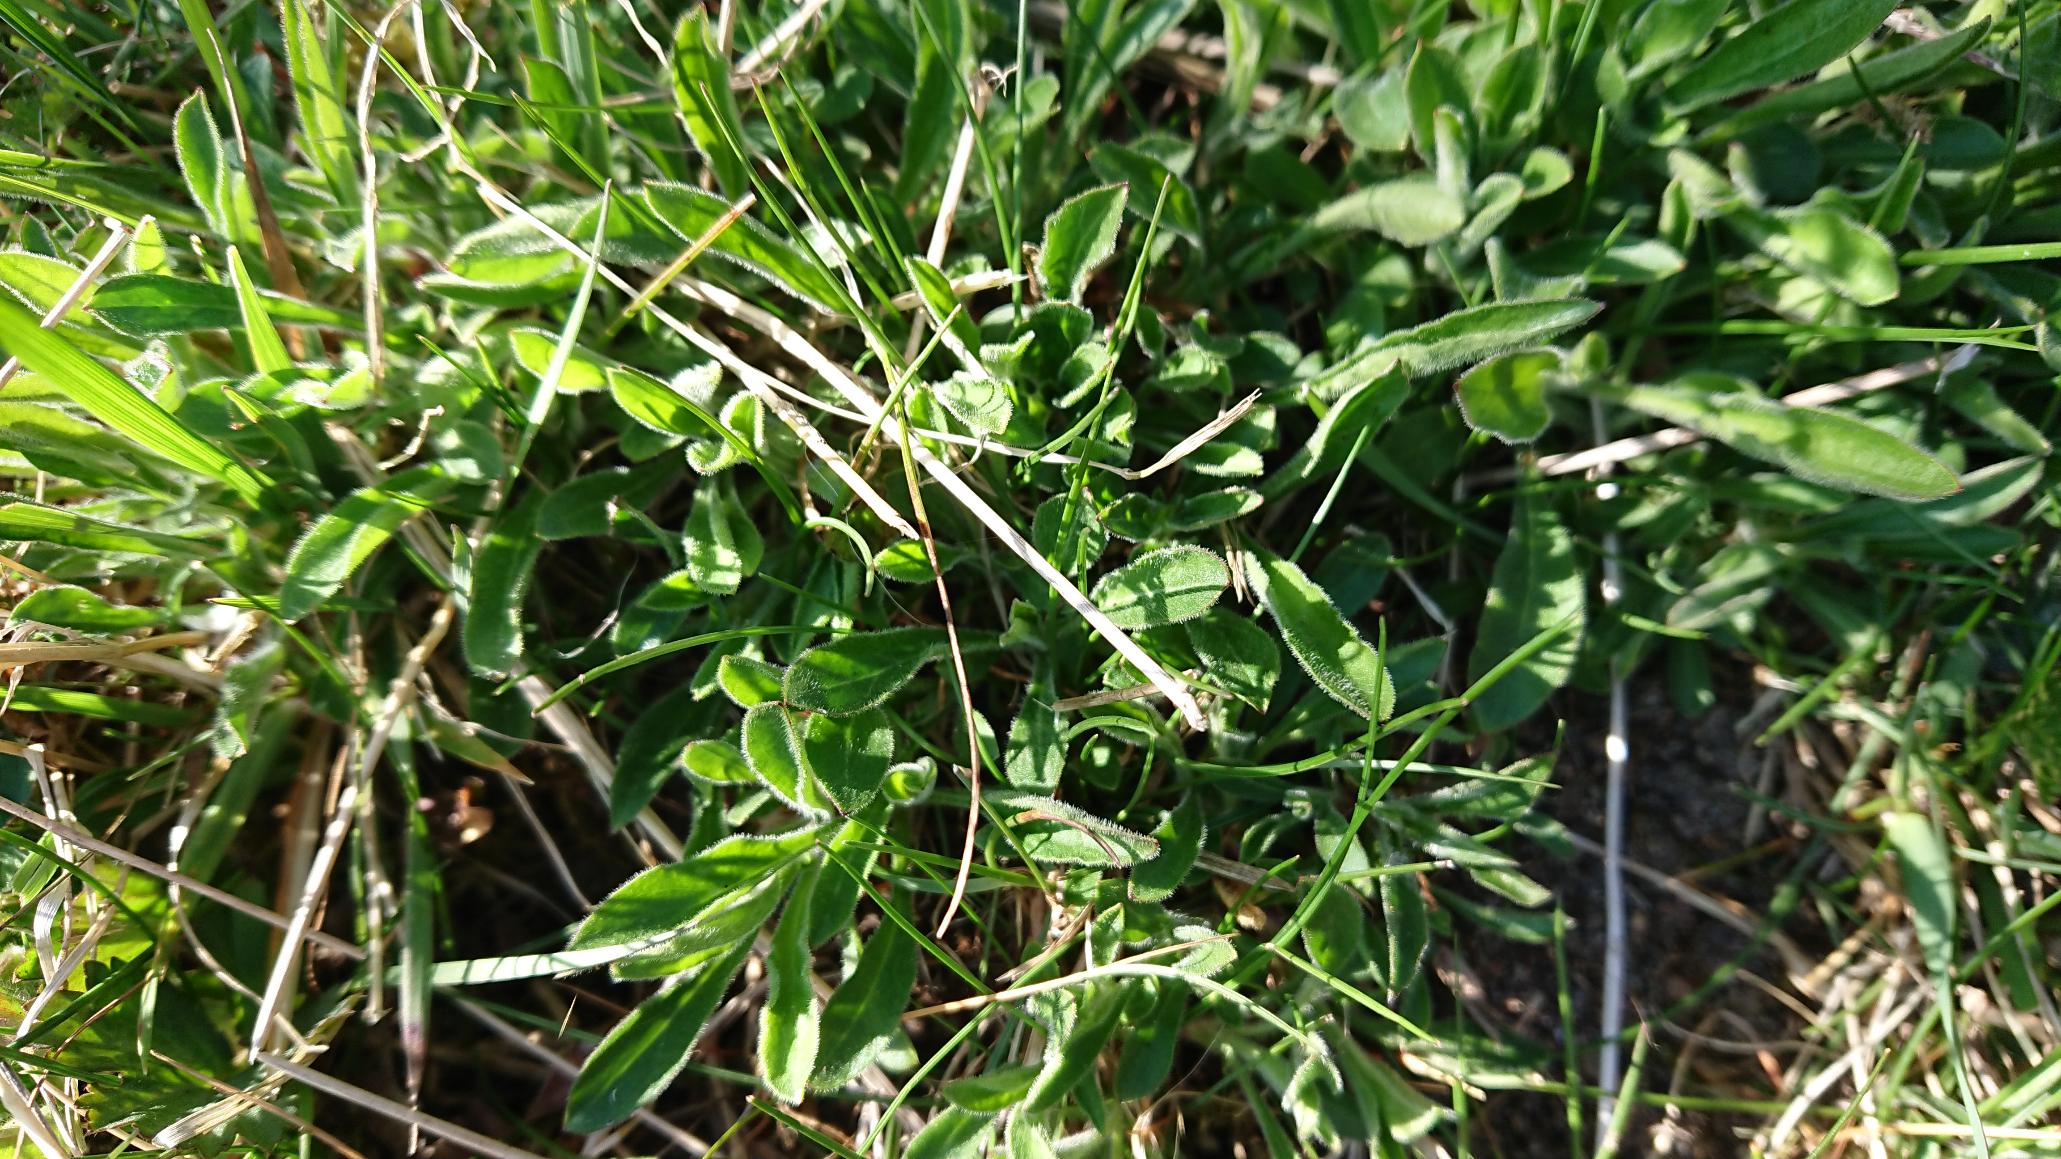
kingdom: Plantae
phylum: Tracheophyta
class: Magnoliopsida
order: Caryophyllales
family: Caryophyllaceae
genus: Silene
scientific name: Silene nutans
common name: Nikkende limurt
